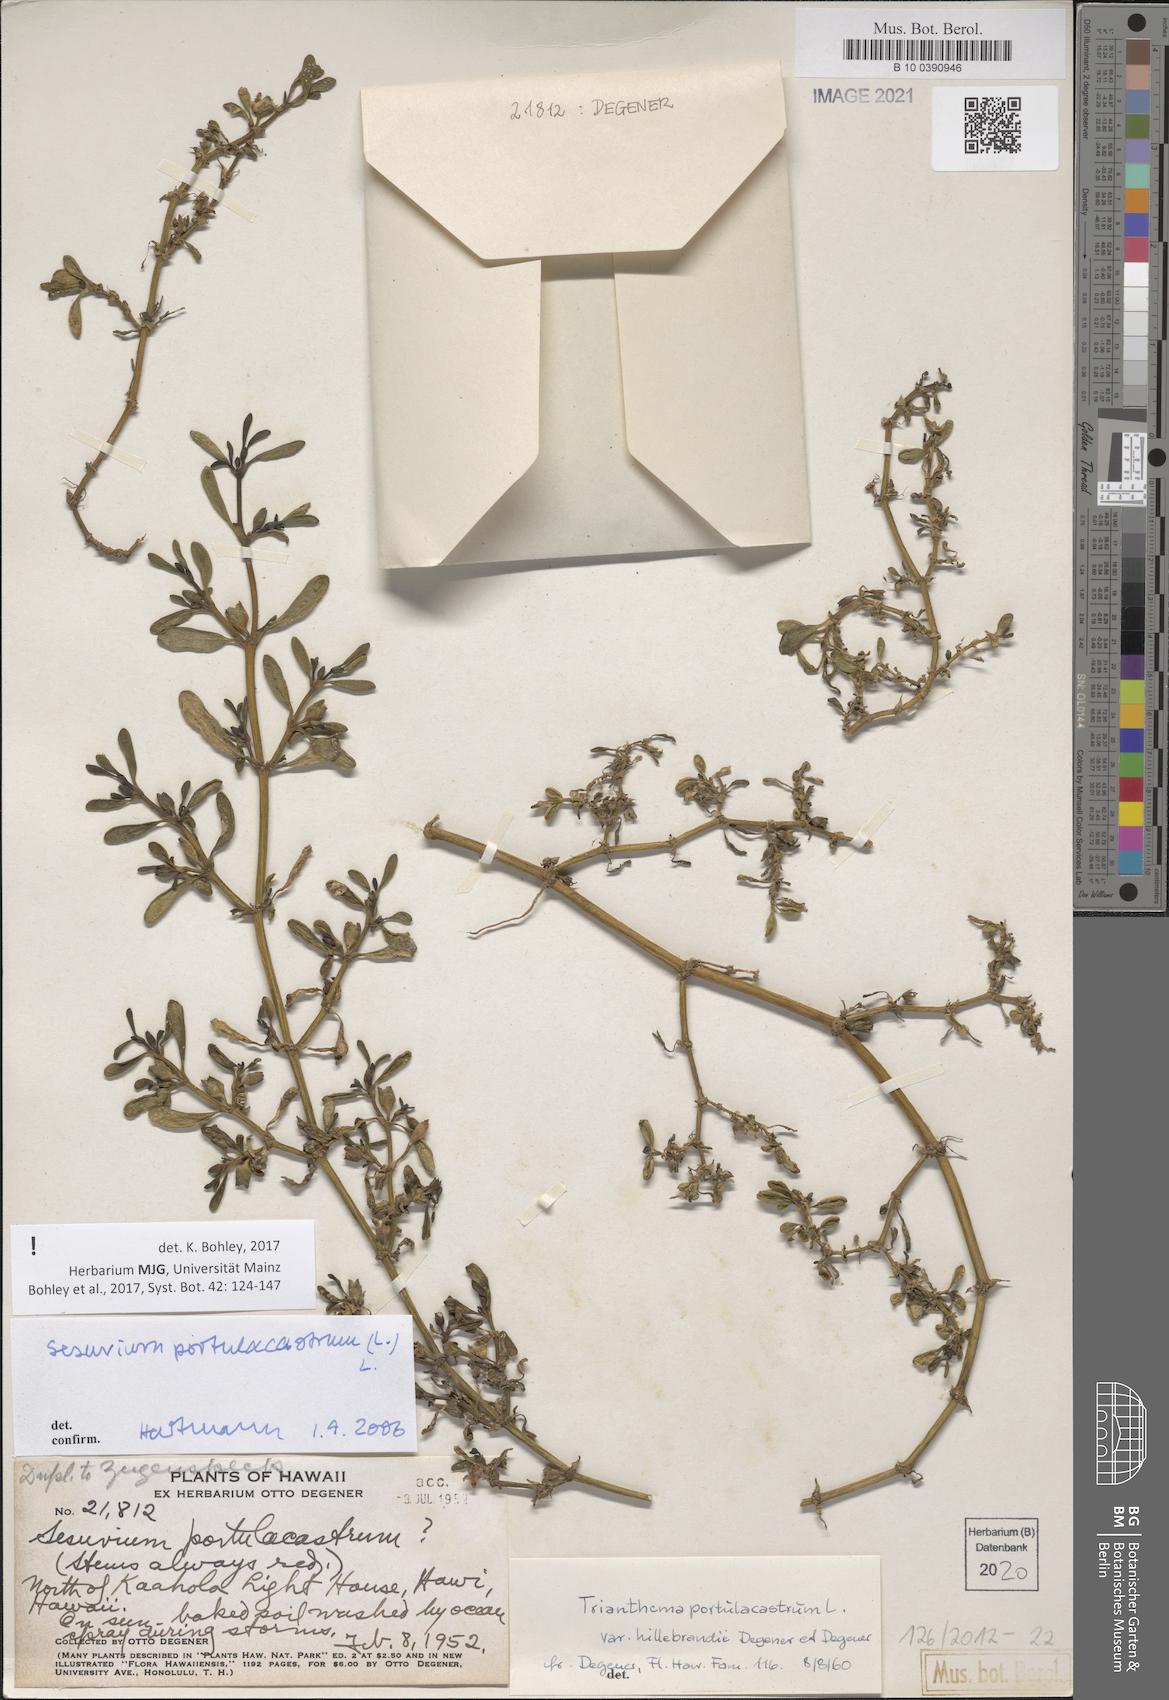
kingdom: Plantae
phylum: Tracheophyta
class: Magnoliopsida
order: Caryophyllales
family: Aizoaceae
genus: Sesuvium
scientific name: Sesuvium portulacastrum
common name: Sea-purslane
